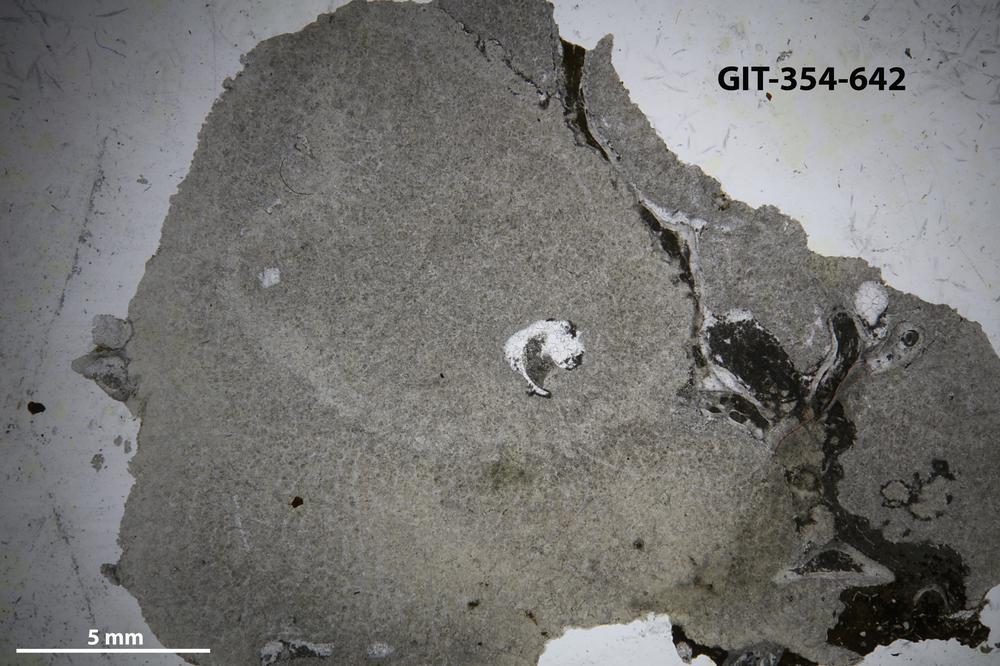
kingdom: Animalia
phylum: Porifera
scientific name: Porifera
